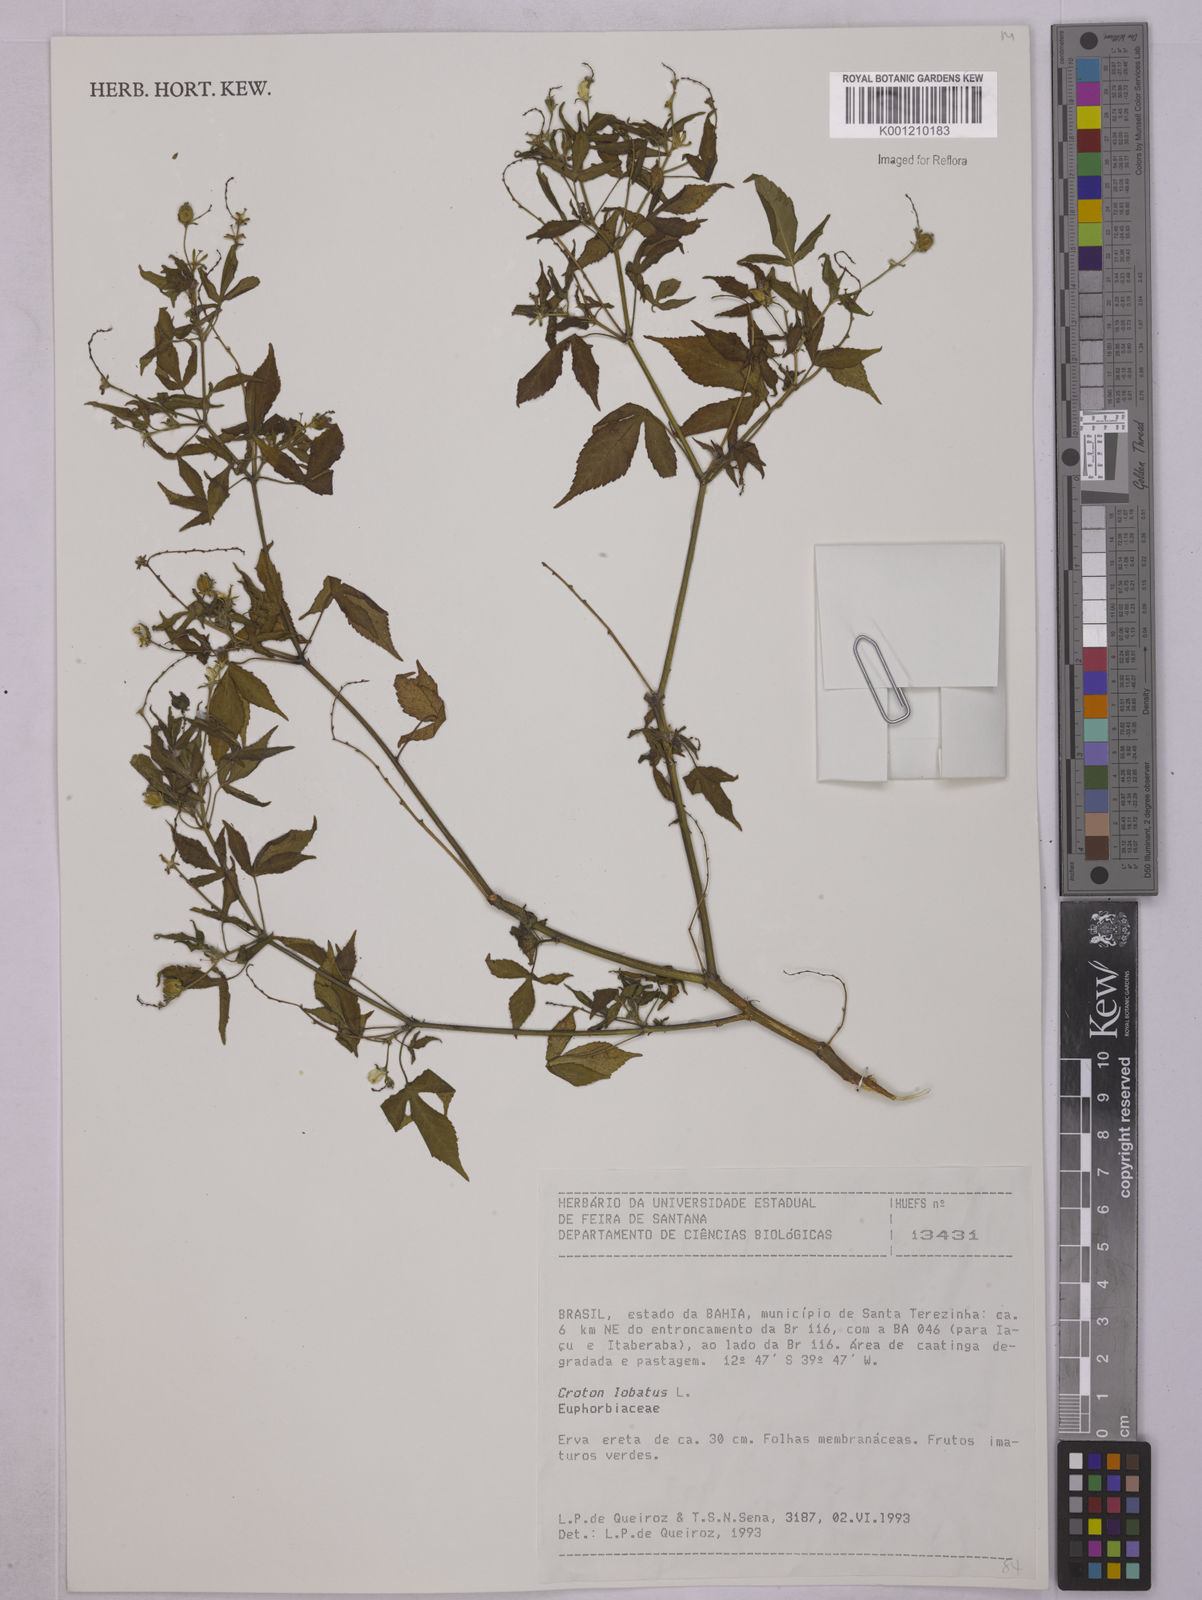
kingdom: Plantae
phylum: Tracheophyta
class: Magnoliopsida
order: Malpighiales
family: Euphorbiaceae
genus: Astraea
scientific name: Astraea lobata
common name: Lobed croton
